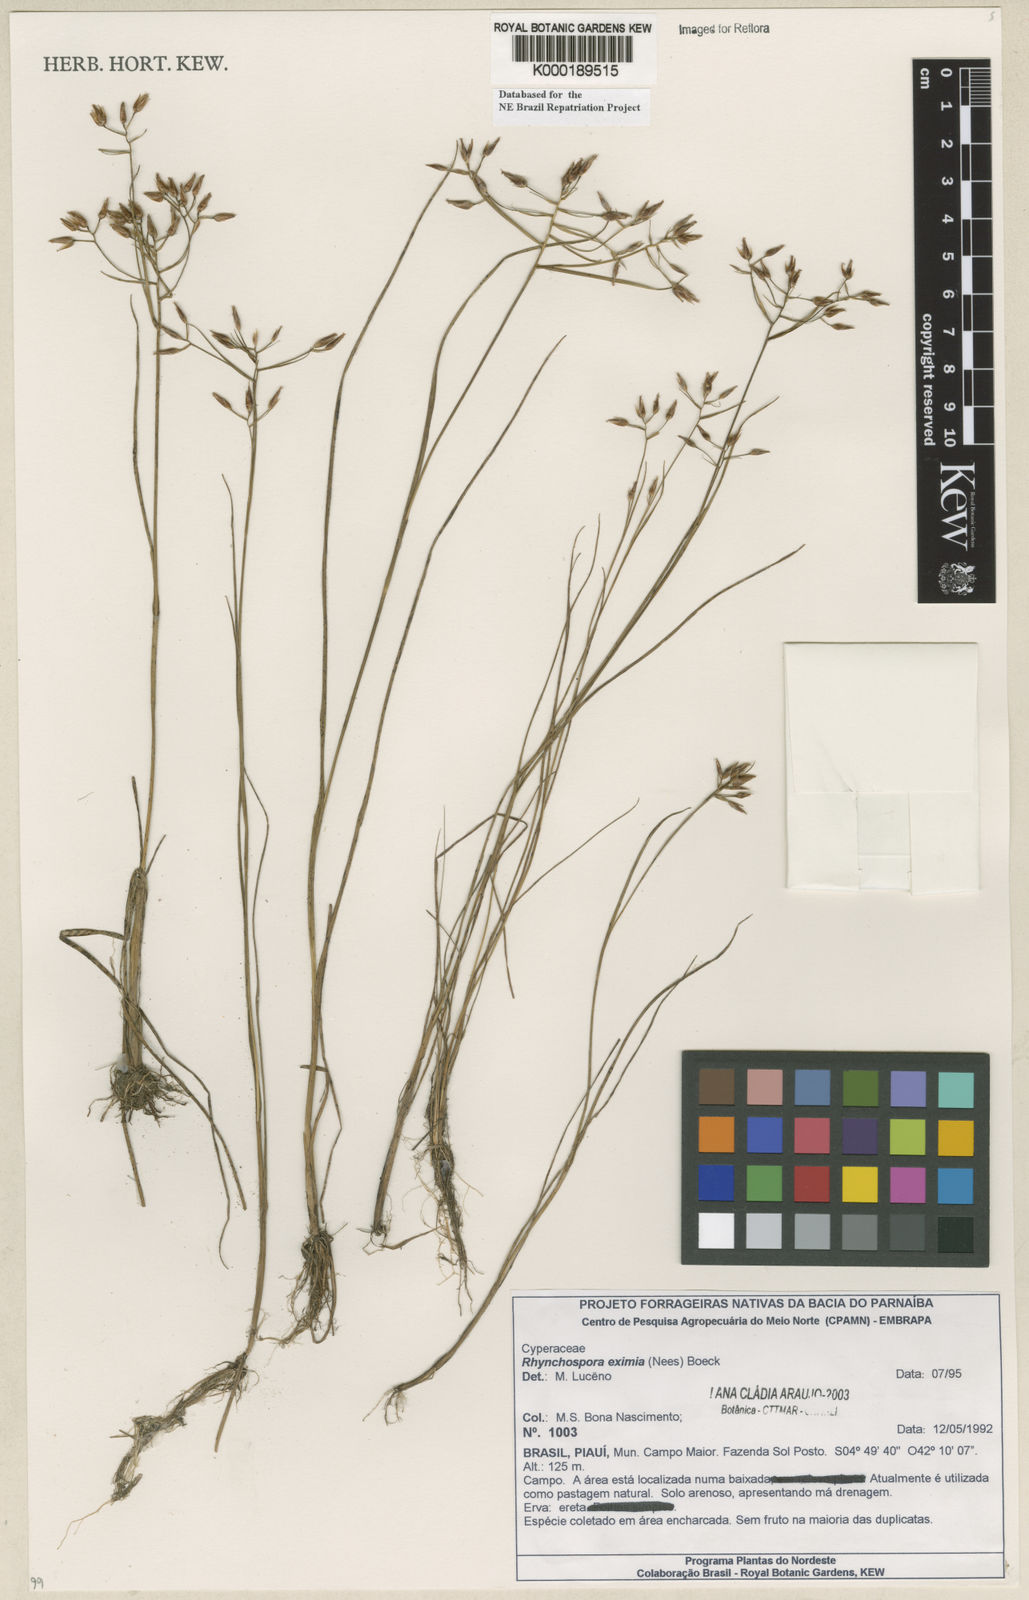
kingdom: Plantae
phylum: Tracheophyta
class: Liliopsida
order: Poales
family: Cyperaceae
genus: Rhynchospora
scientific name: Rhynchospora eximia
